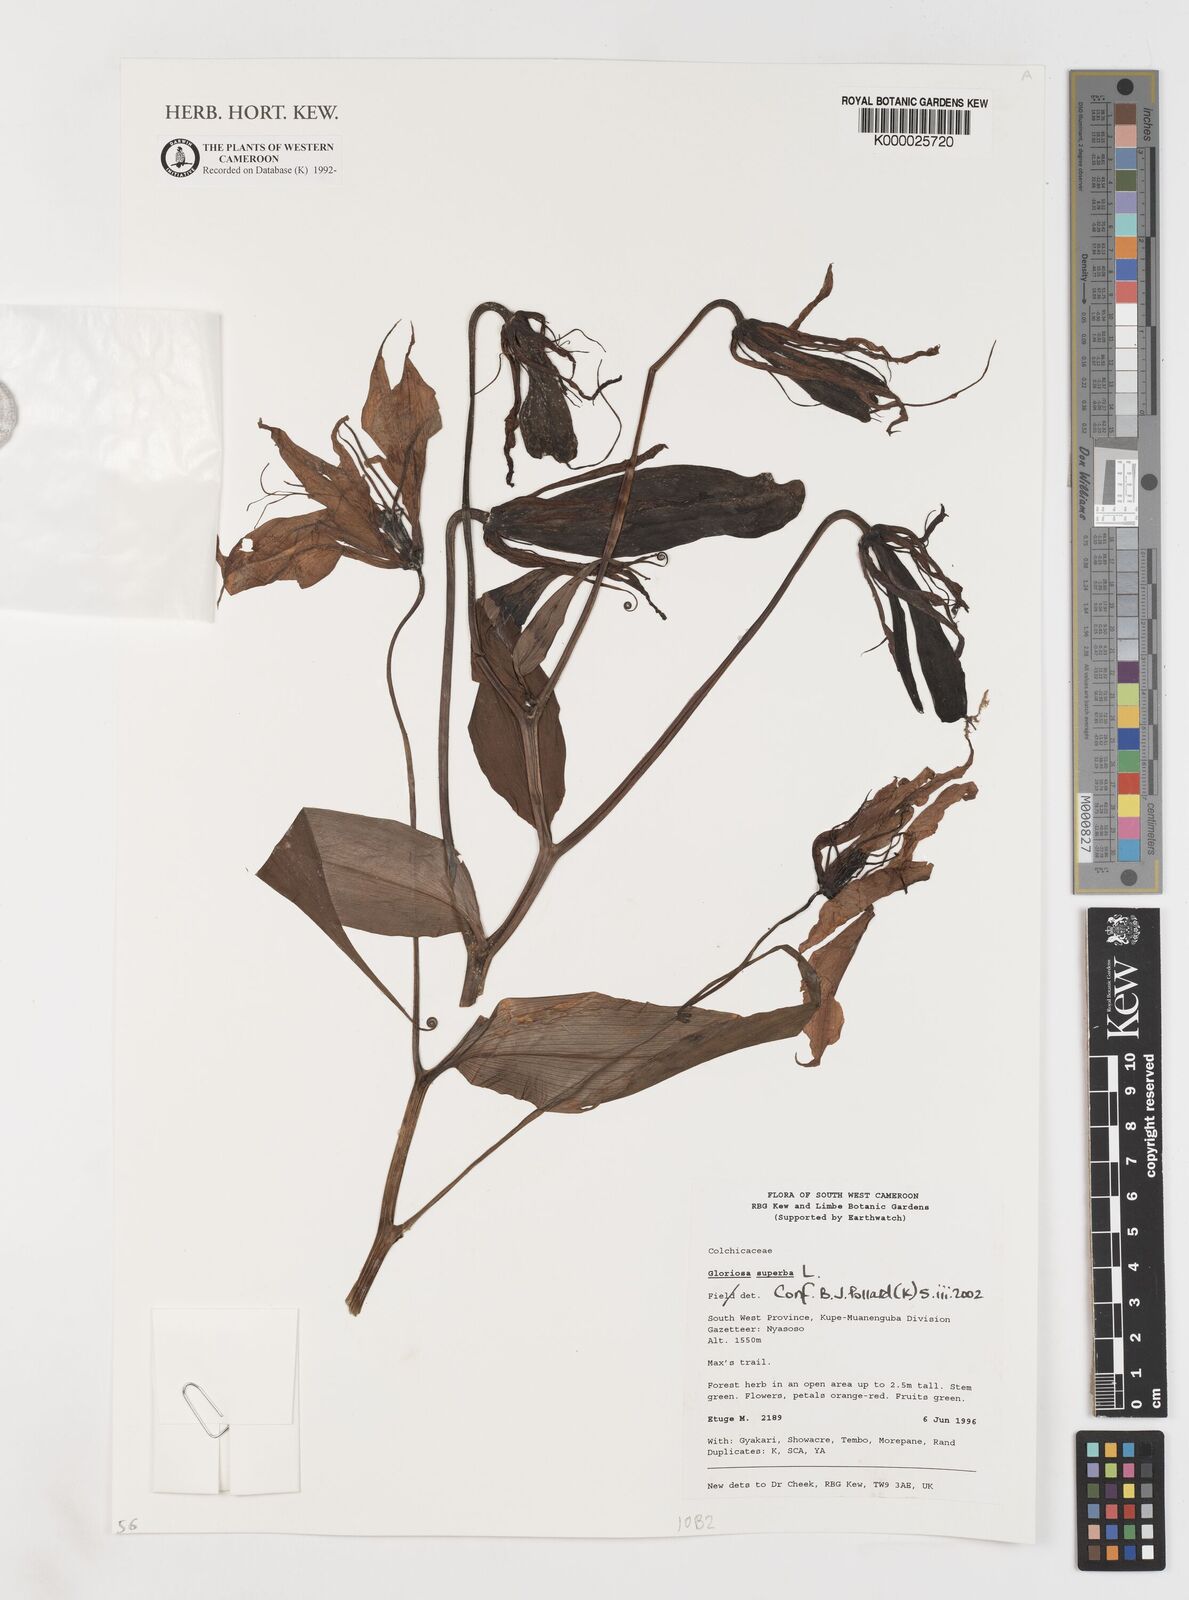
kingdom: Plantae
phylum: Tracheophyta
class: Liliopsida
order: Liliales
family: Colchicaceae
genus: Gloriosa
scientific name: Gloriosa superba
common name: Flame lily
